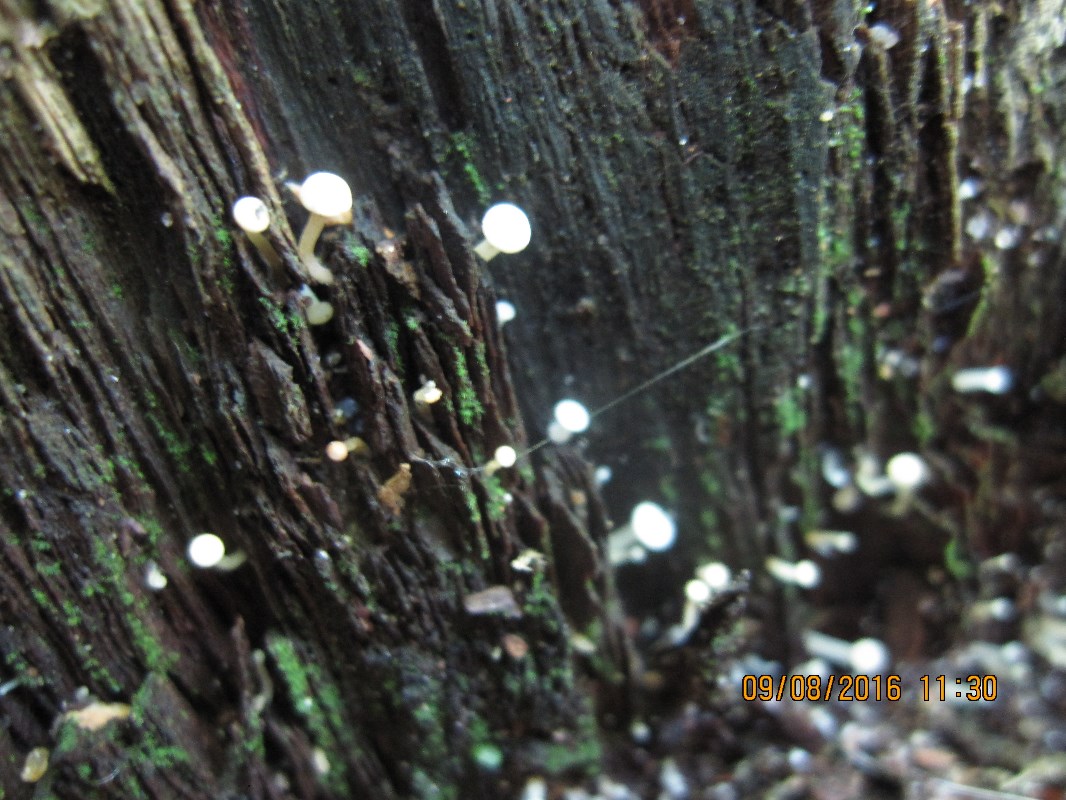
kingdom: Fungi
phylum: Ascomycota
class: Leotiomycetes
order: Helotiales
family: Tricladiaceae
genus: Cudoniella
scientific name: Cudoniella acicularis
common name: ege-dyndskive
